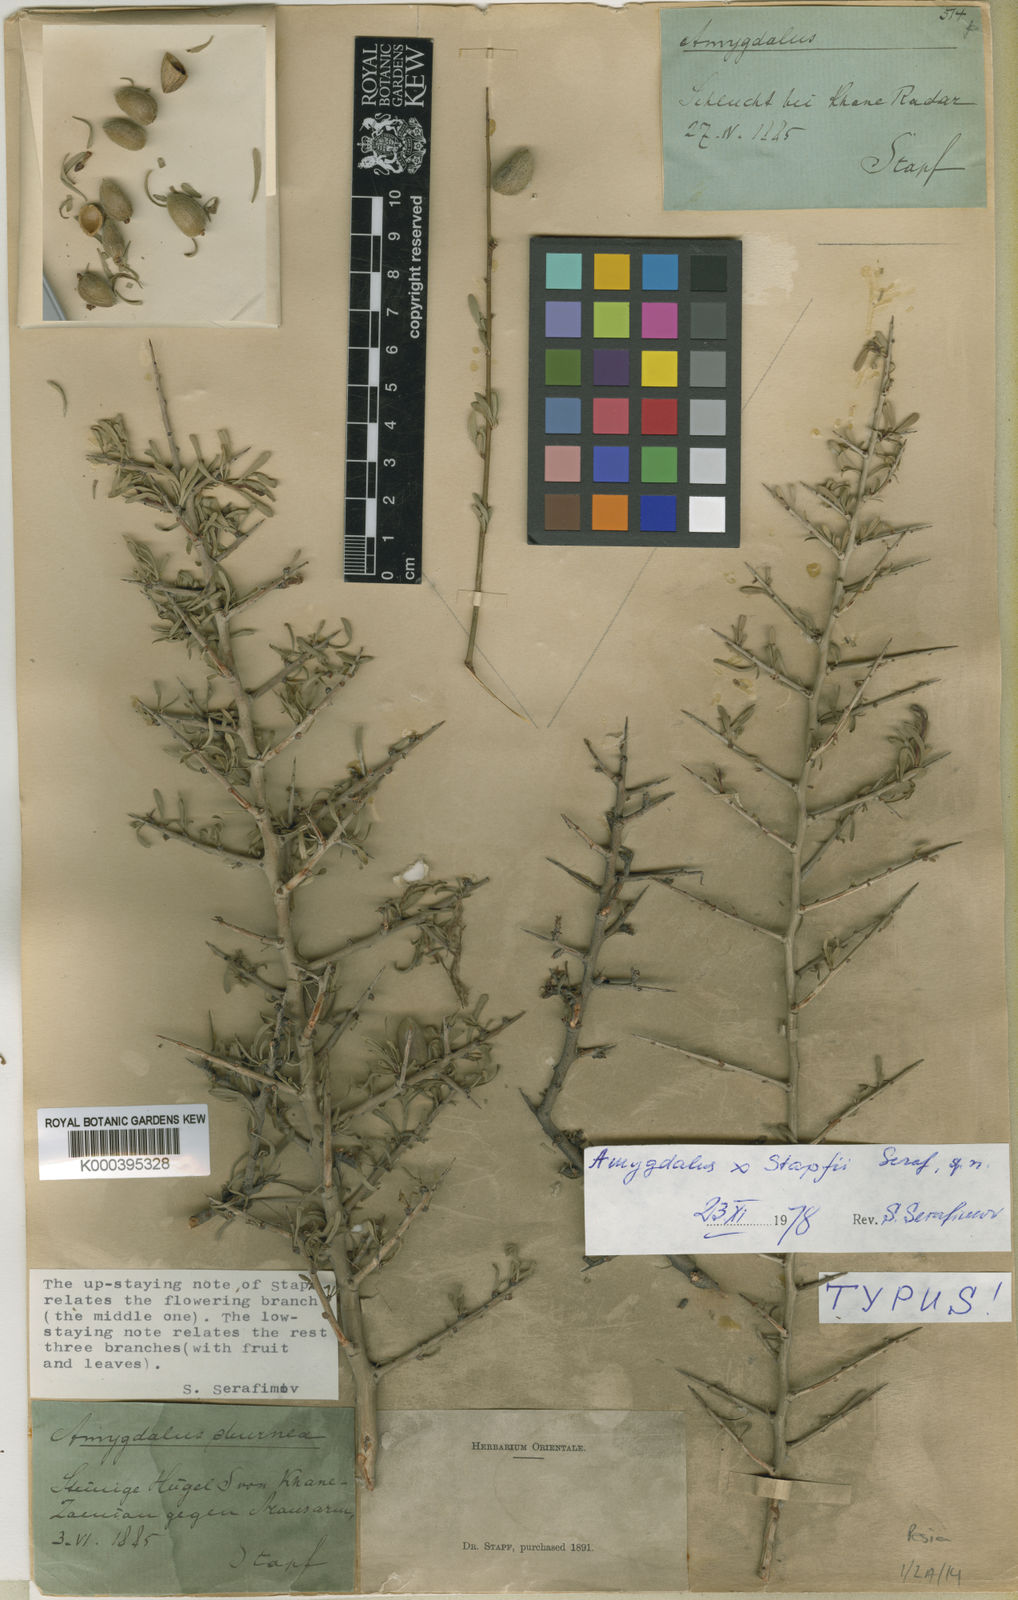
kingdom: Plantae
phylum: Tracheophyta
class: Magnoliopsida
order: Rosales
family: Rosaceae
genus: Prunus
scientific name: Prunus
